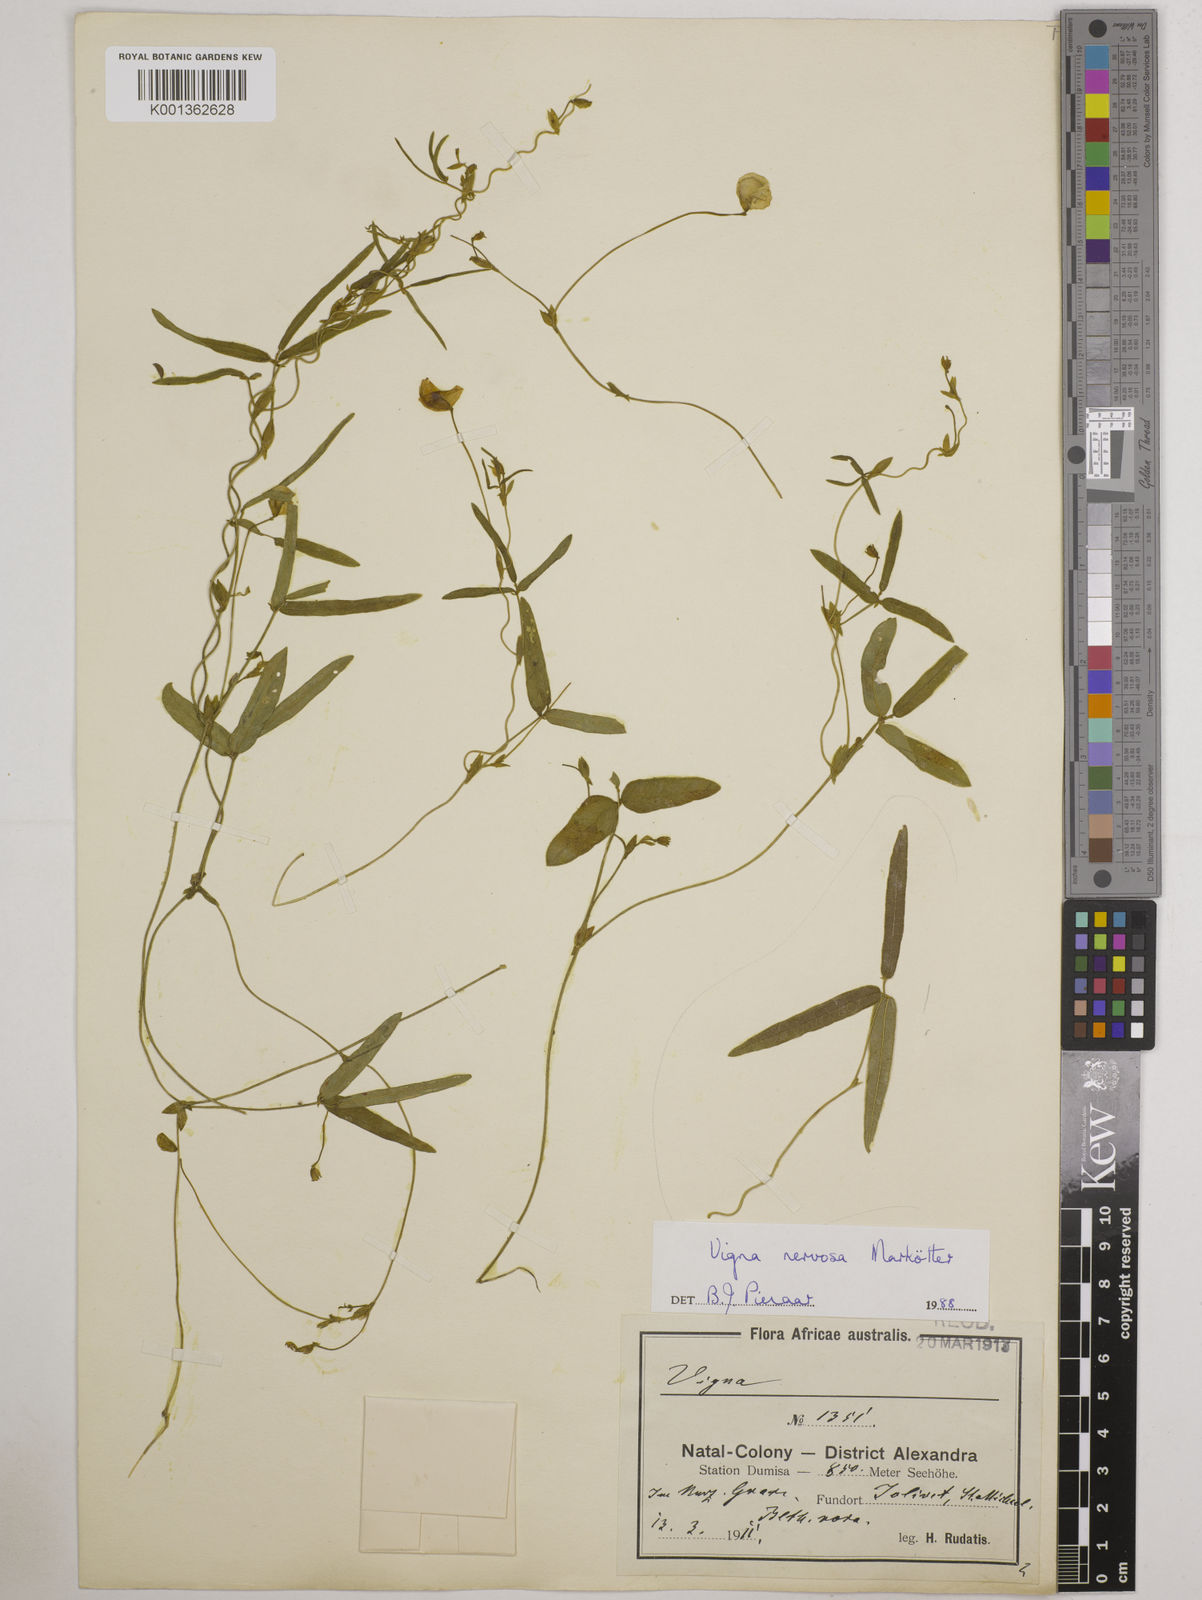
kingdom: Plantae
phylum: Tracheophyta
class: Magnoliopsida
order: Fabales
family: Fabaceae
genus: Vigna
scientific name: Vigna nervosa
